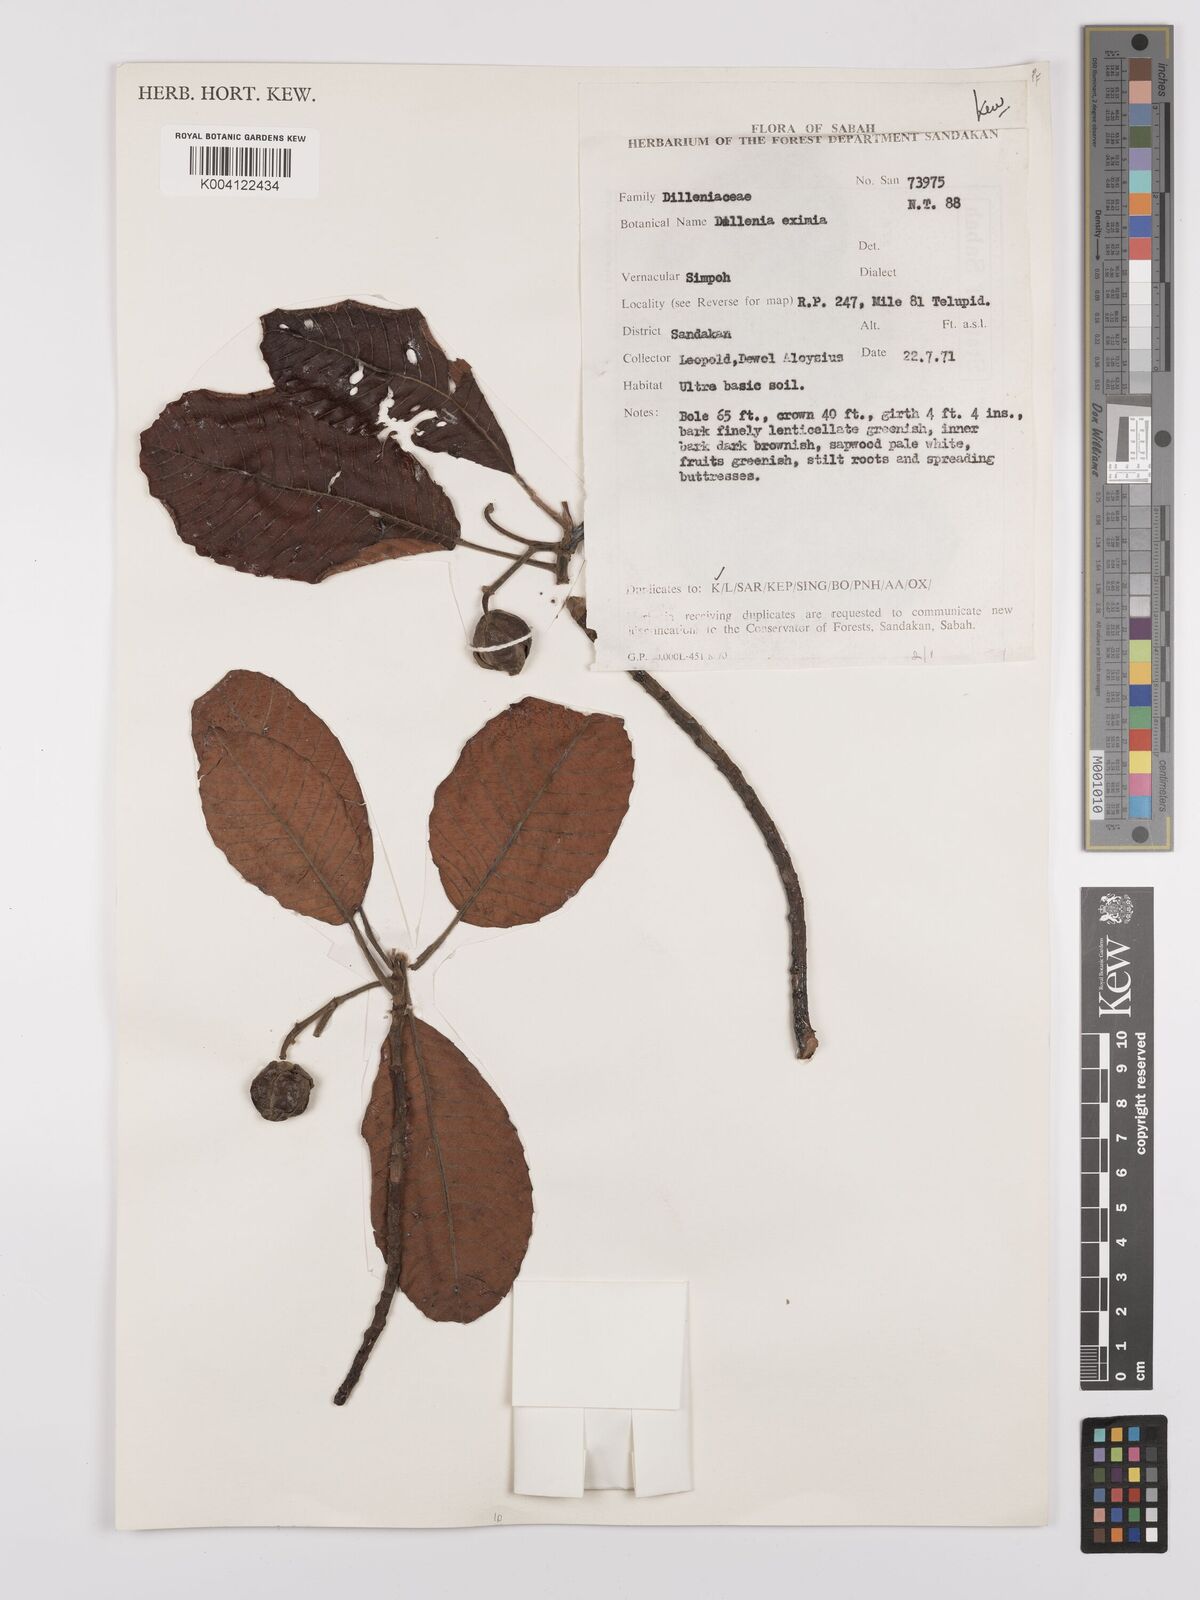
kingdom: Plantae
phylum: Tracheophyta
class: Magnoliopsida
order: Dilleniales
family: Dilleniaceae
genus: Dillenia
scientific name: Dillenia grandifolia
